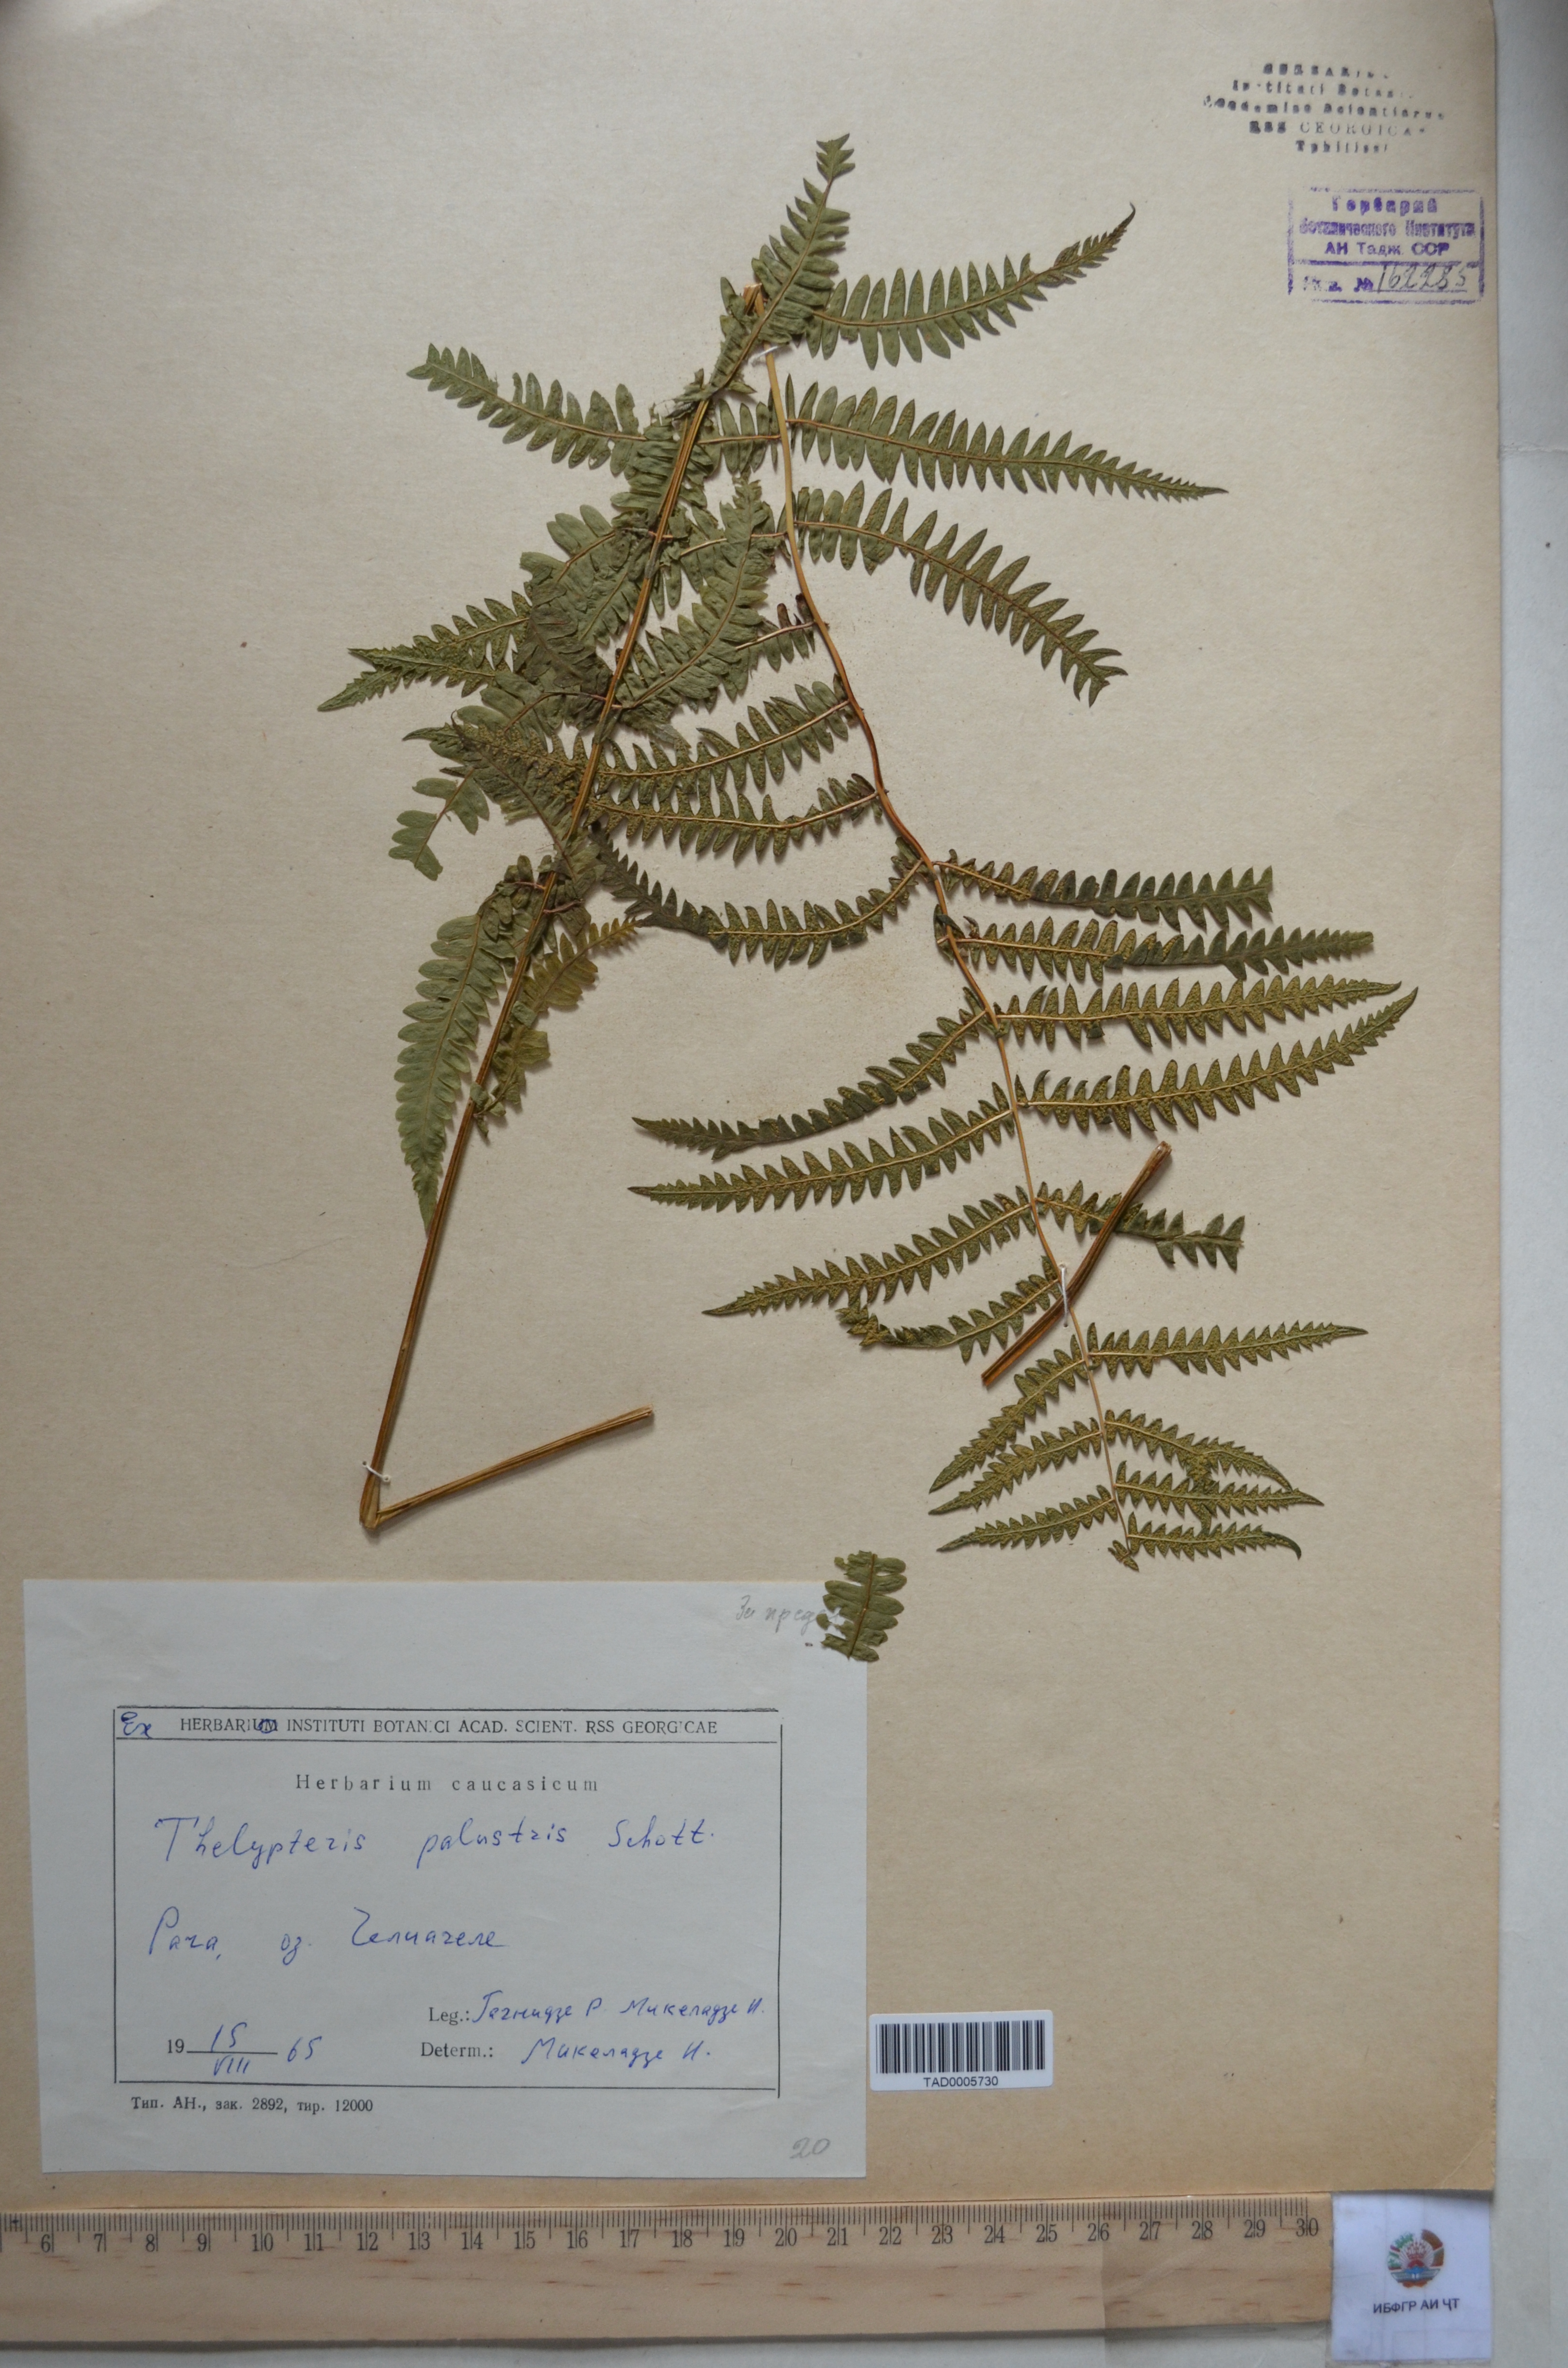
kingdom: Plantae
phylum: Tracheophyta
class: Polypodiopsida
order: Polypodiales
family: Thelypteridaceae
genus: Trigonospora
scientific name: Trigonospora calcarata
